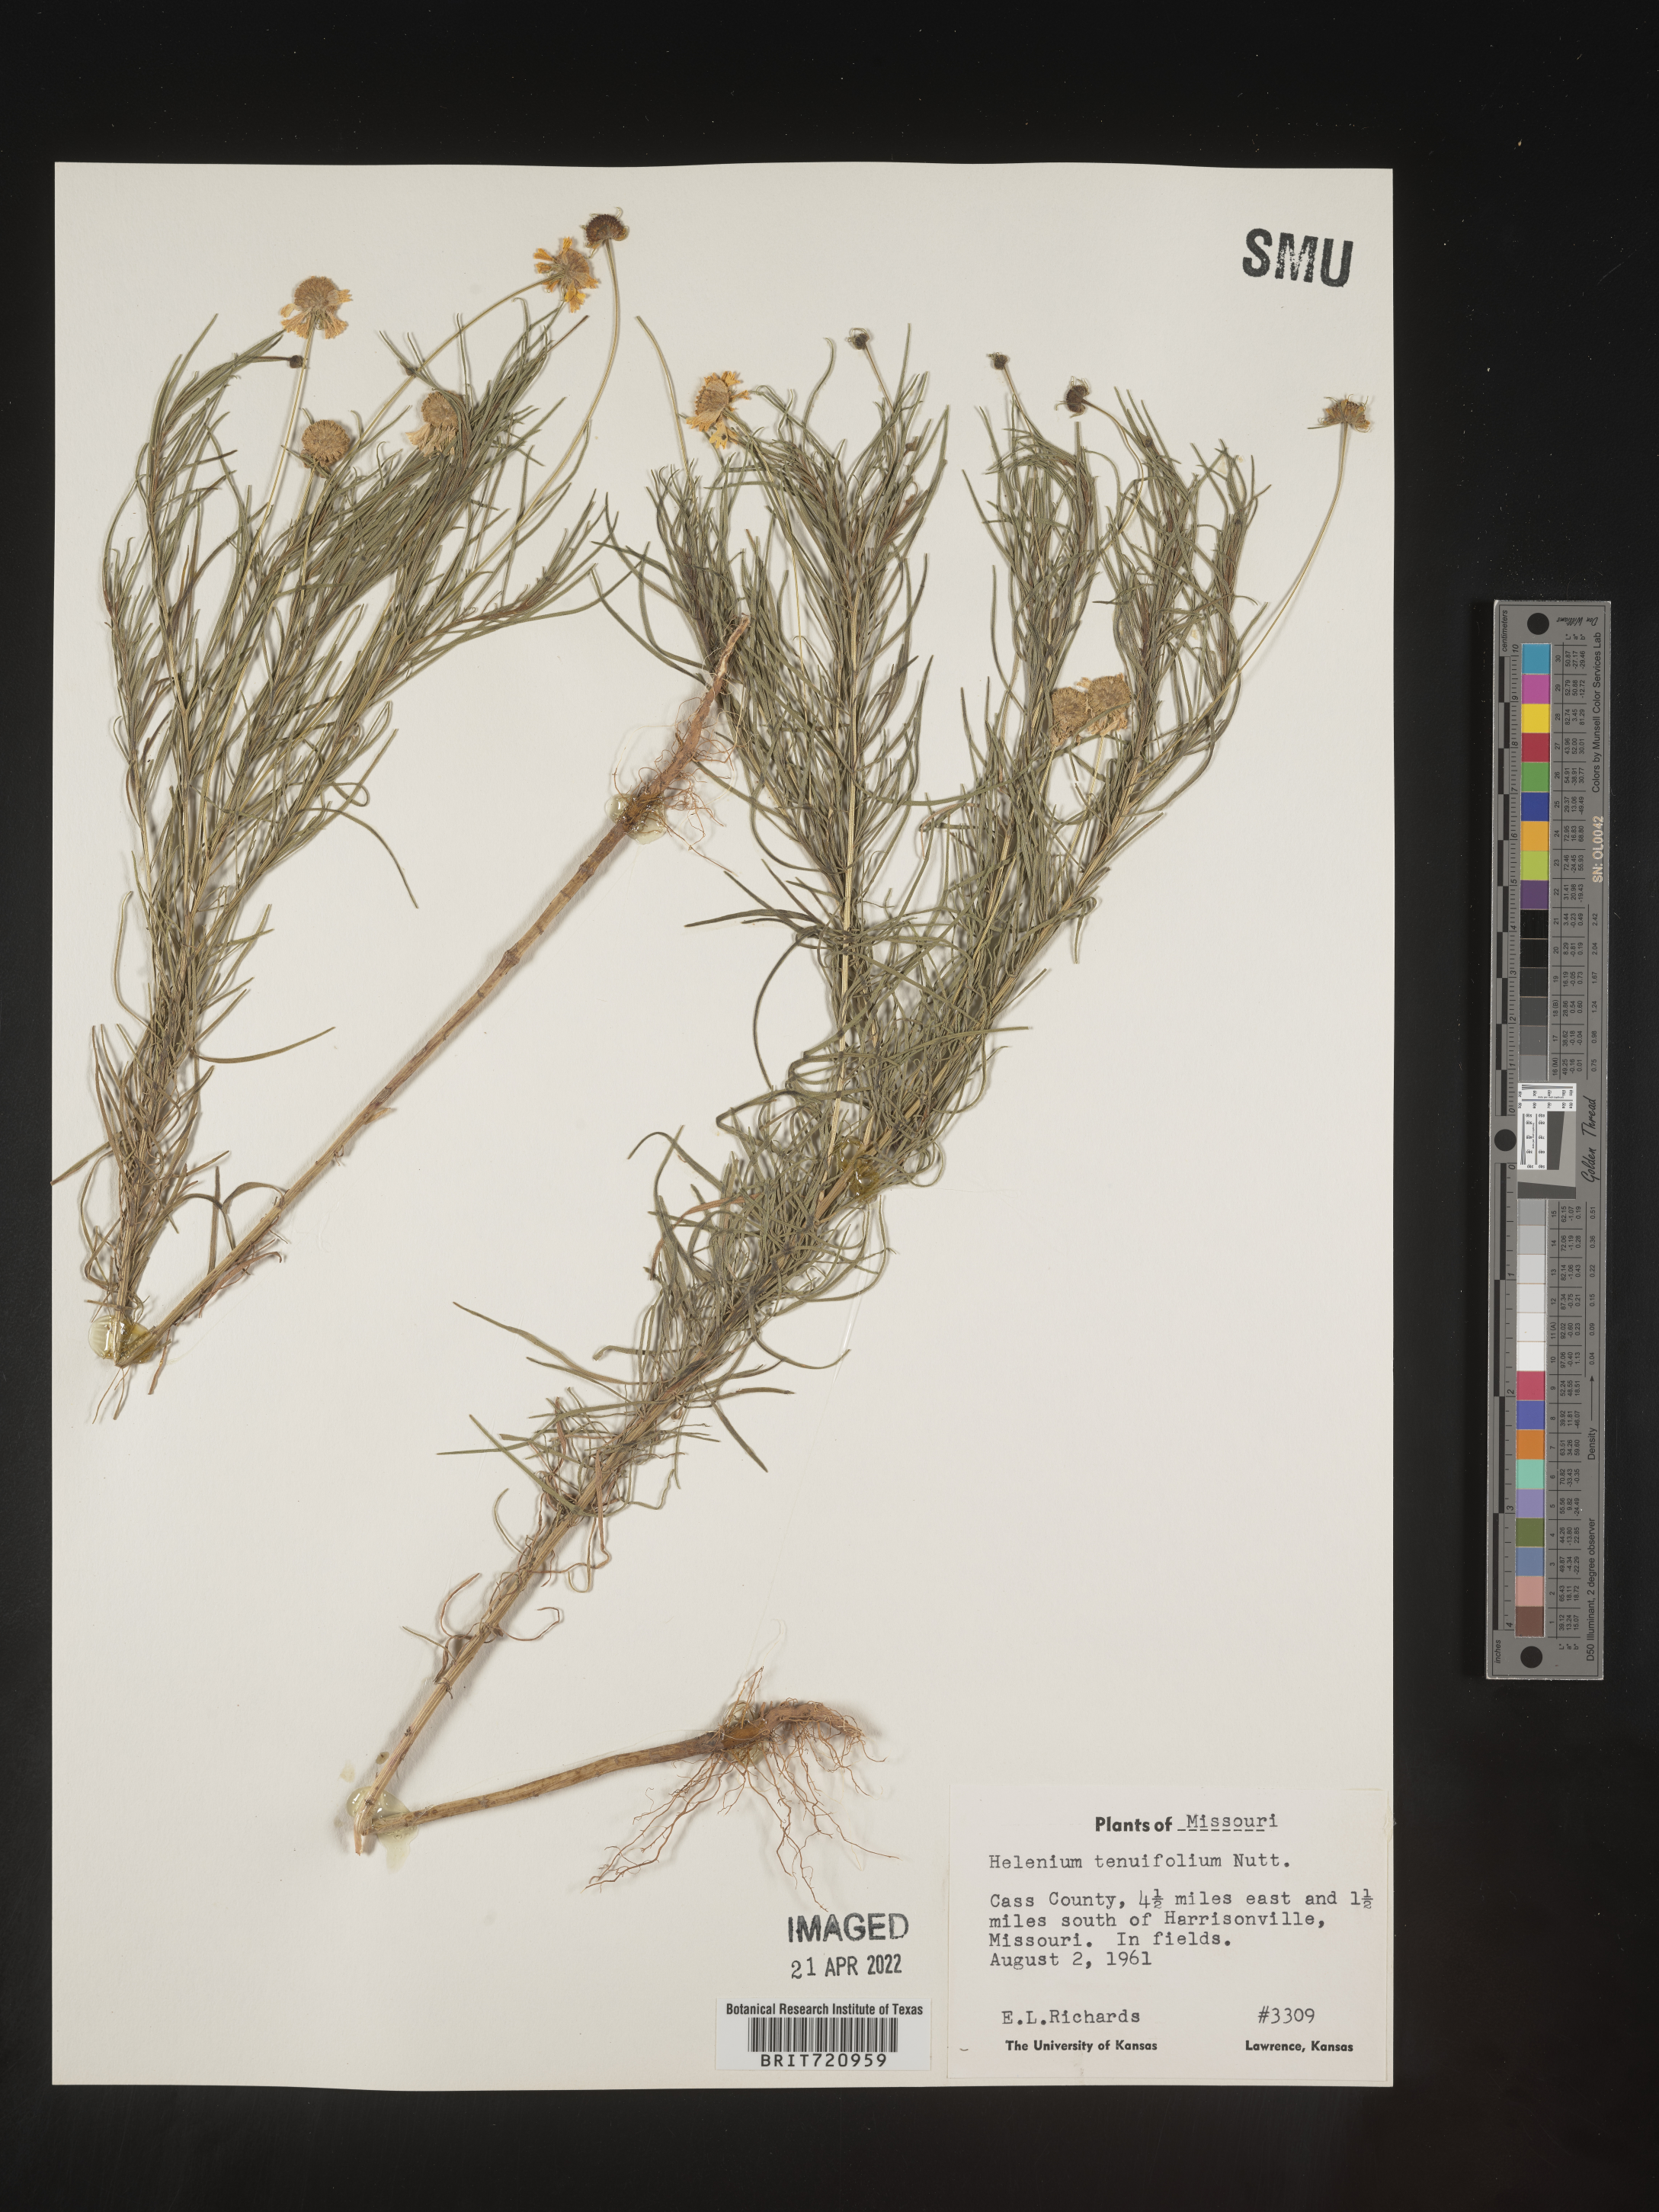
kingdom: Plantae
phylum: Tracheophyta
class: Magnoliopsida
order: Asterales
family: Asteraceae
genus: Helenium
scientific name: Helenium amarum
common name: Bitter sneezeweed
